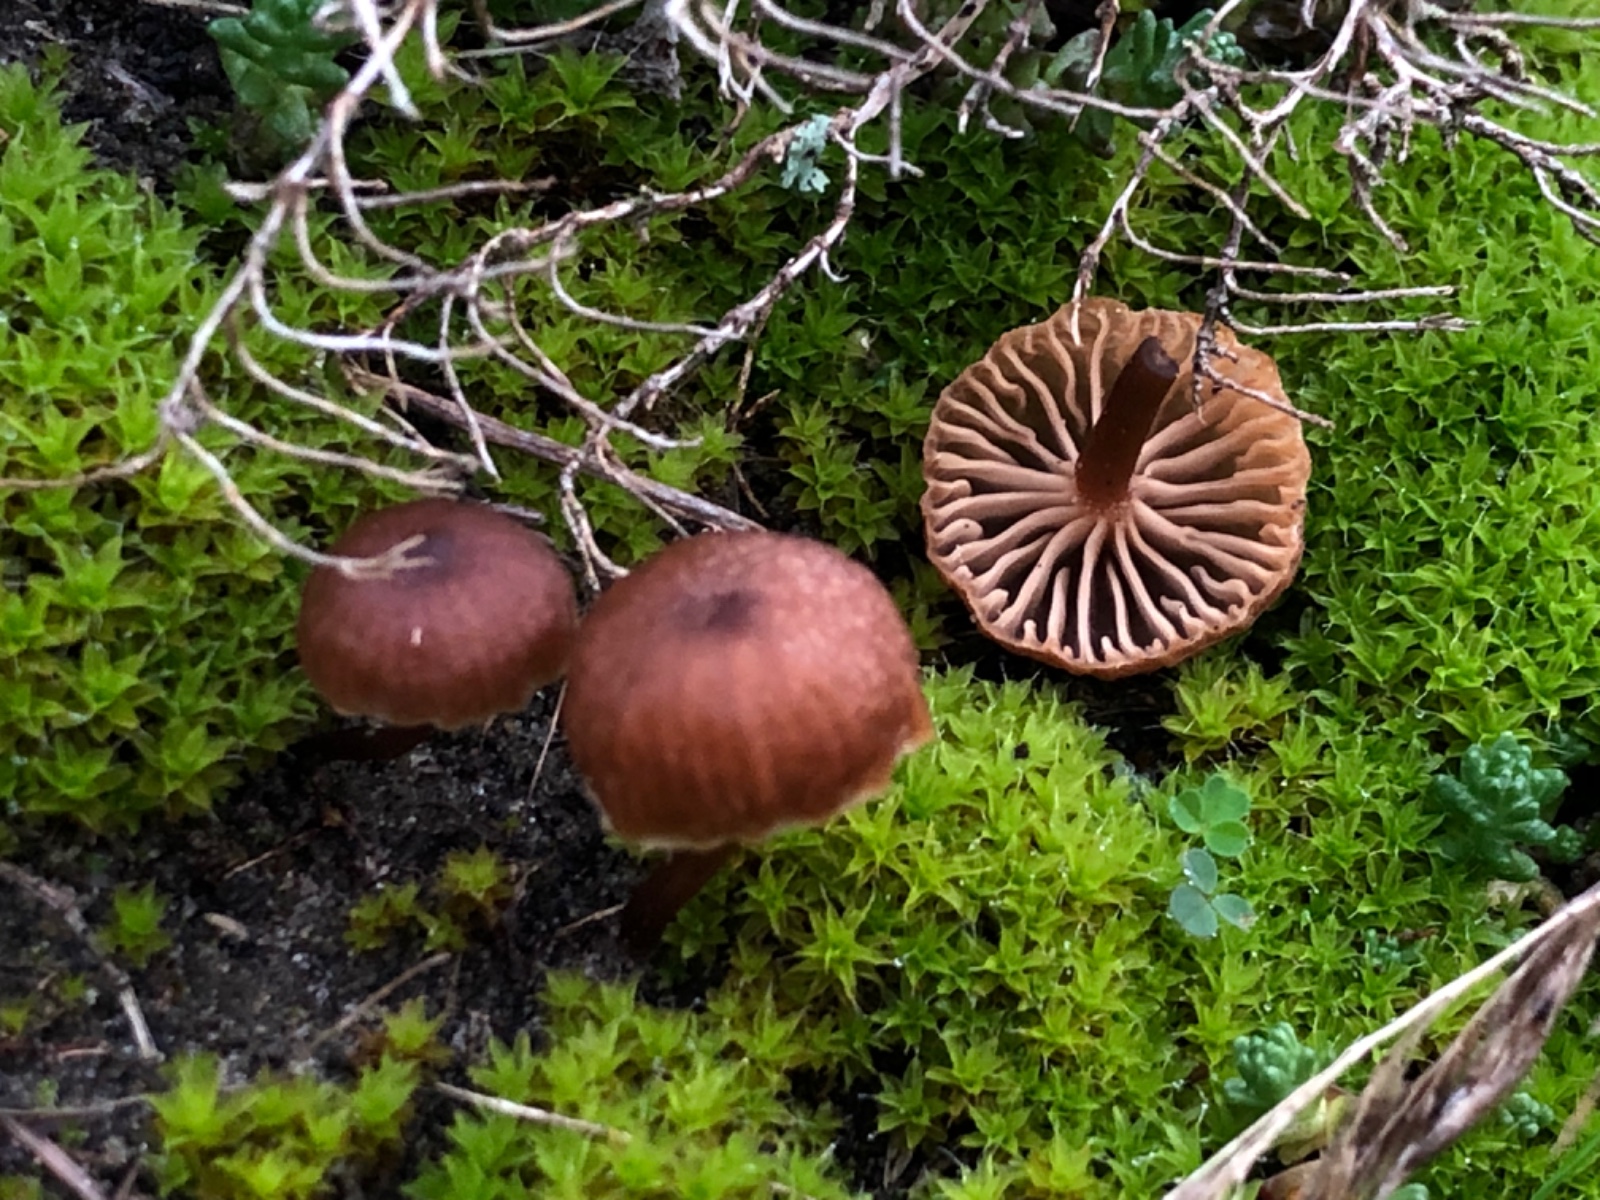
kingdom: Fungi
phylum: Basidiomycota
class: Agaricomycetes
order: Agaricales
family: Tricholomataceae
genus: Omphalina
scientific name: Omphalina pyxidata
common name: rødbrun navlehat
